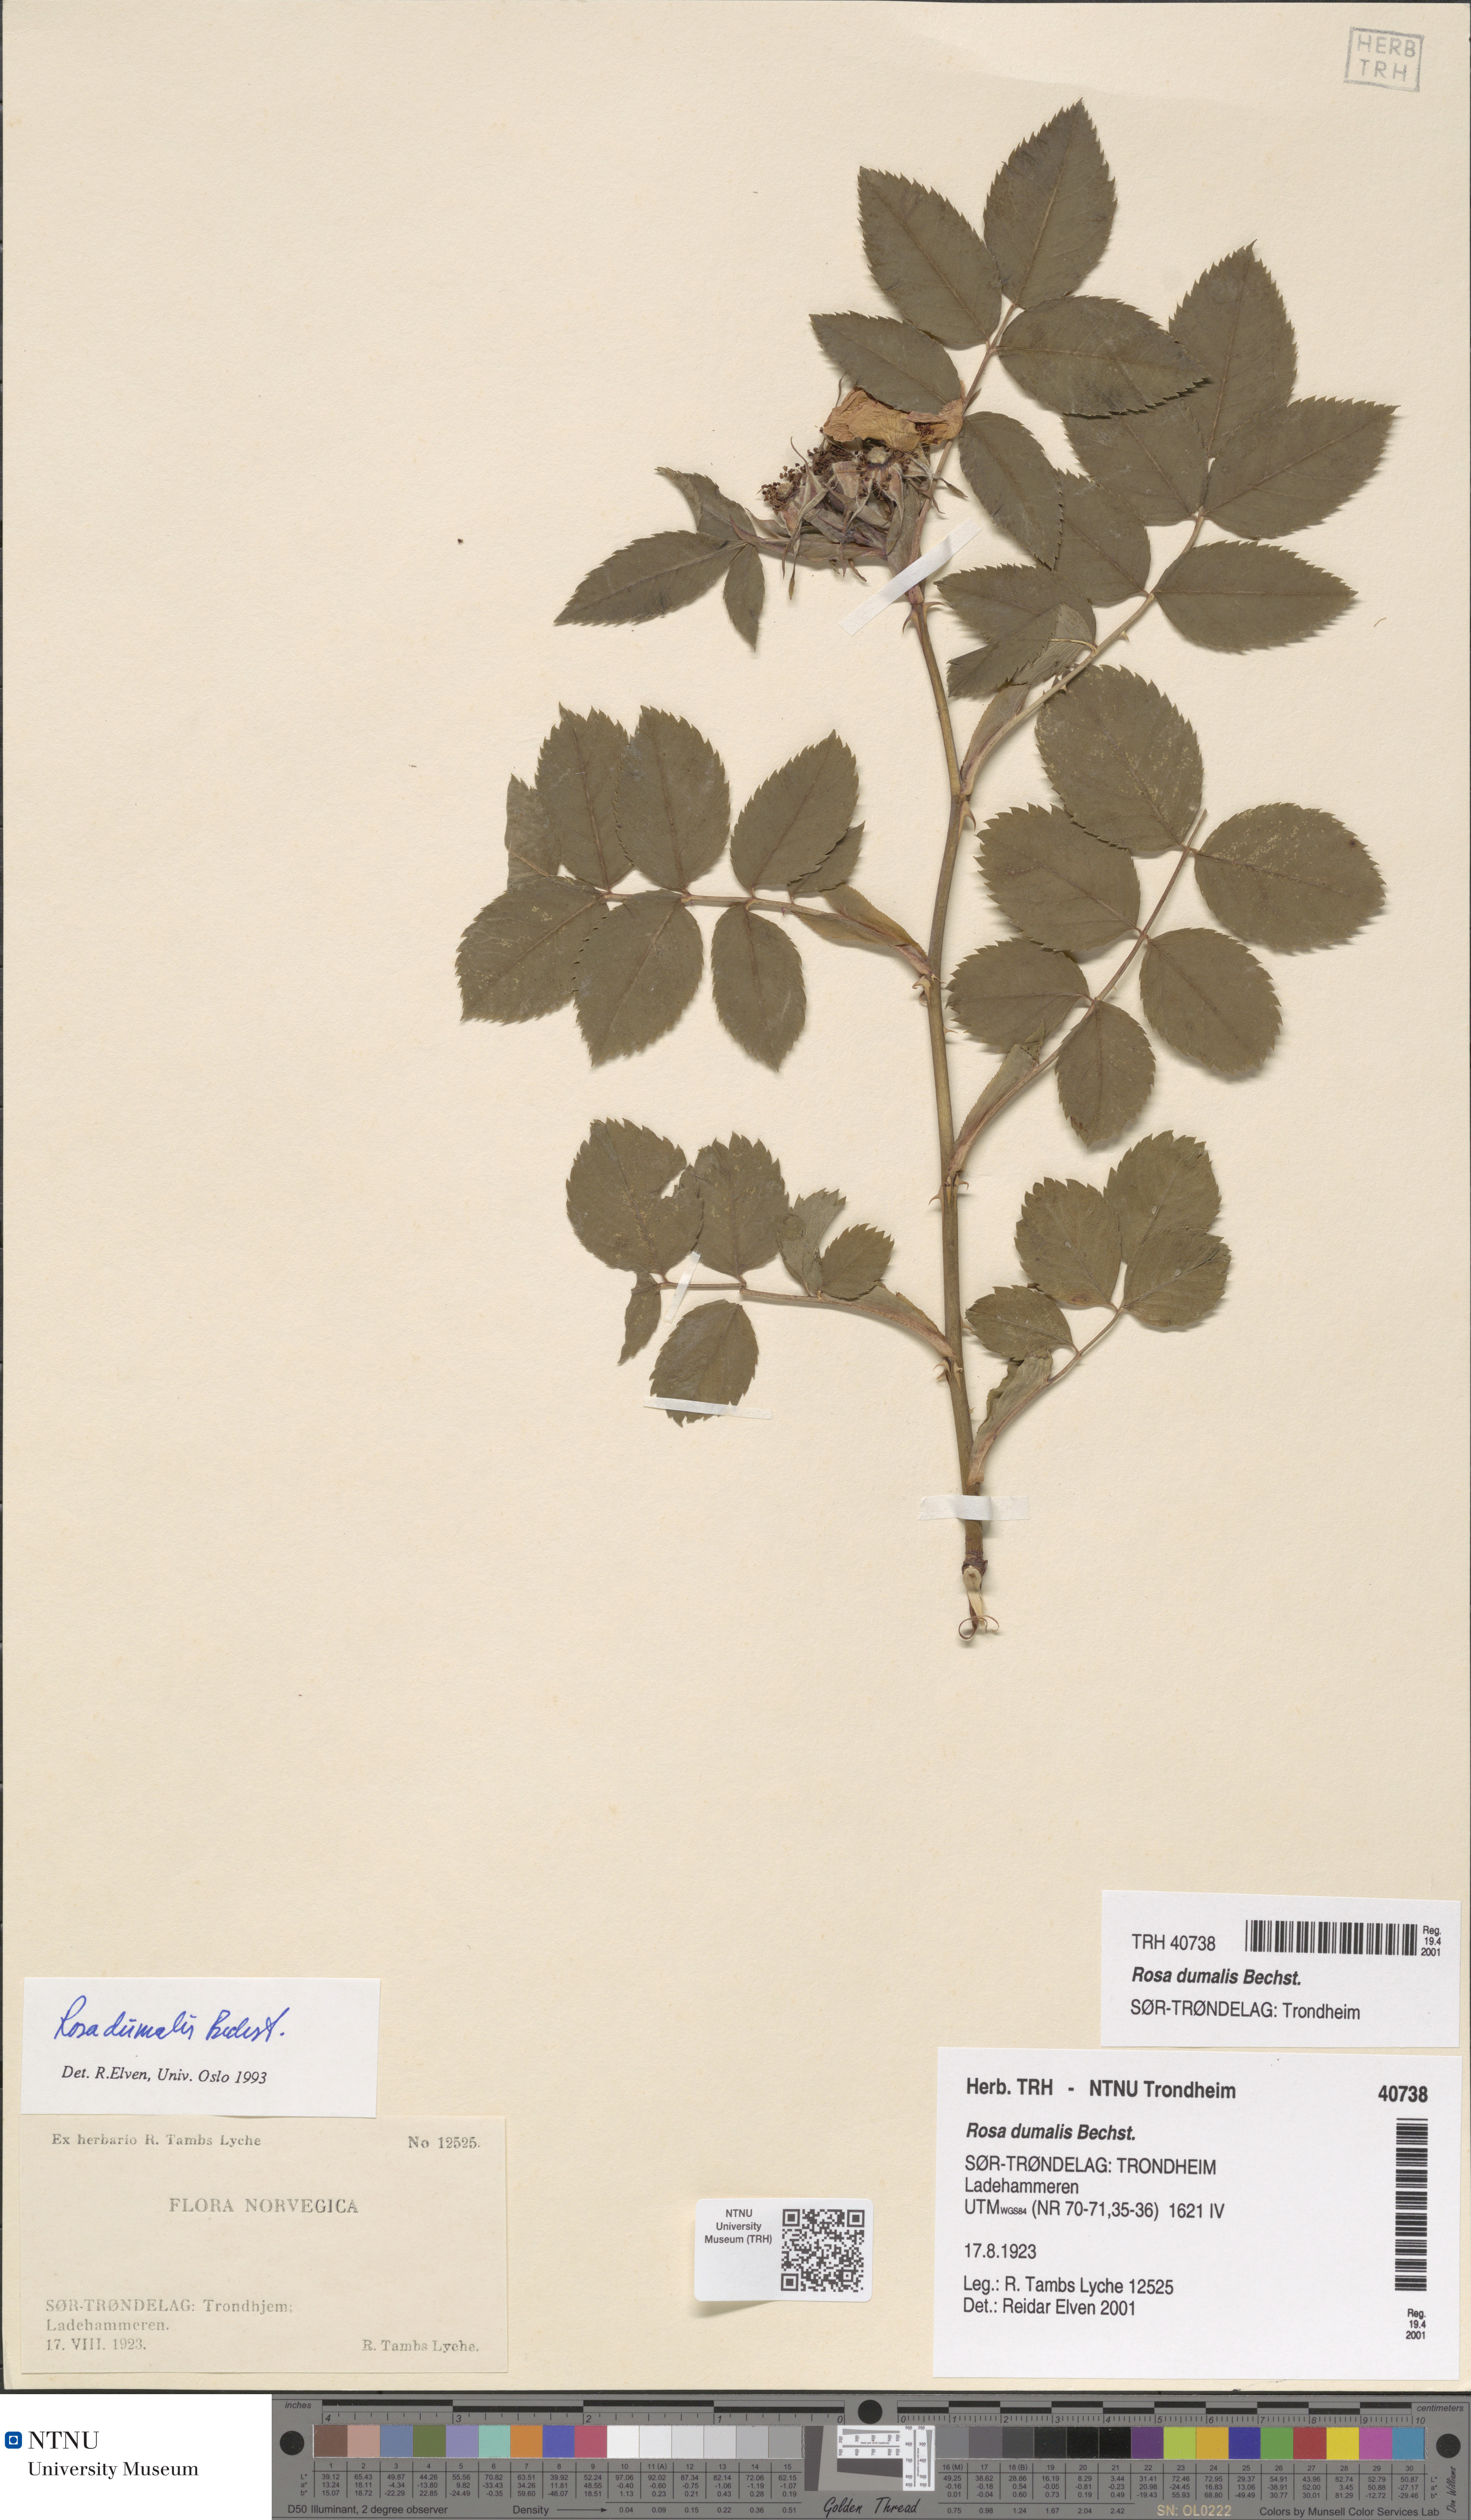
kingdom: Plantae
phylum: Tracheophyta
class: Magnoliopsida
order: Rosales
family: Rosaceae
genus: Rosa
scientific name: Rosa dumalis
